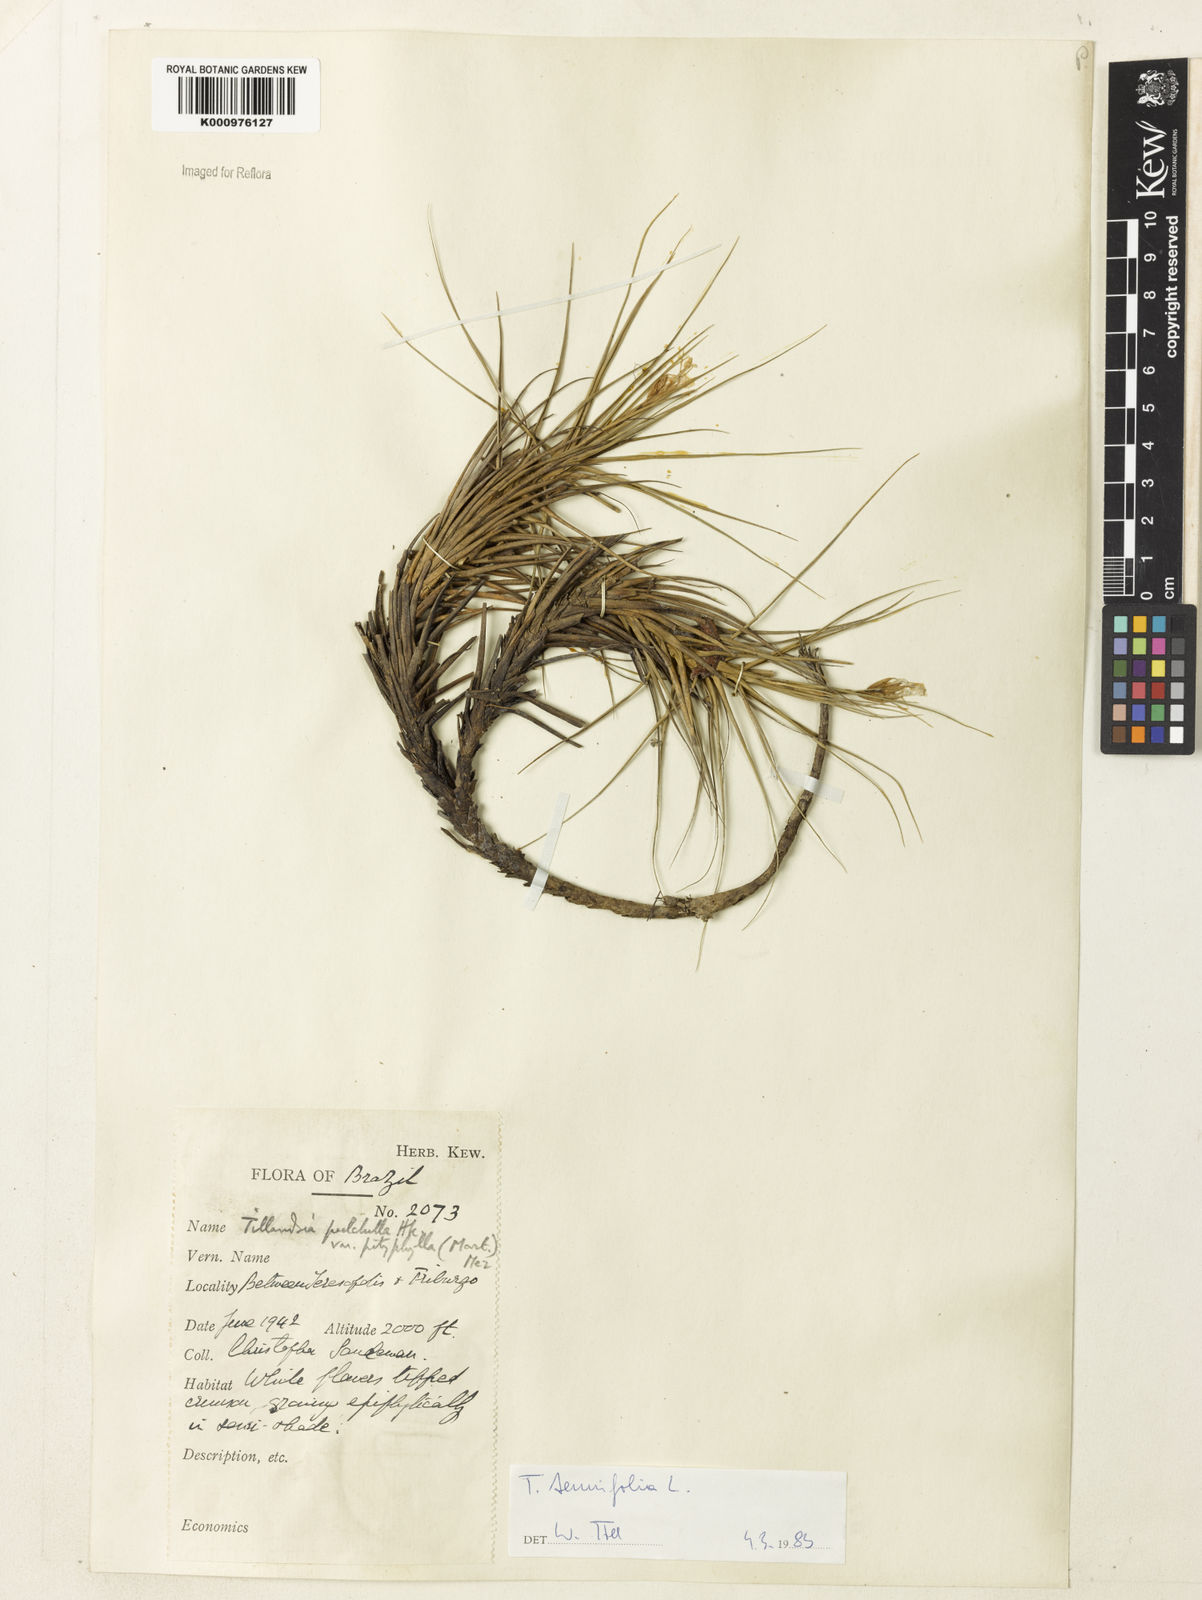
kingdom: Plantae
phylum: Tracheophyta
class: Liliopsida
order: Poales
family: Bromeliaceae
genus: Tillandsia
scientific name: Tillandsia tenuifolia
